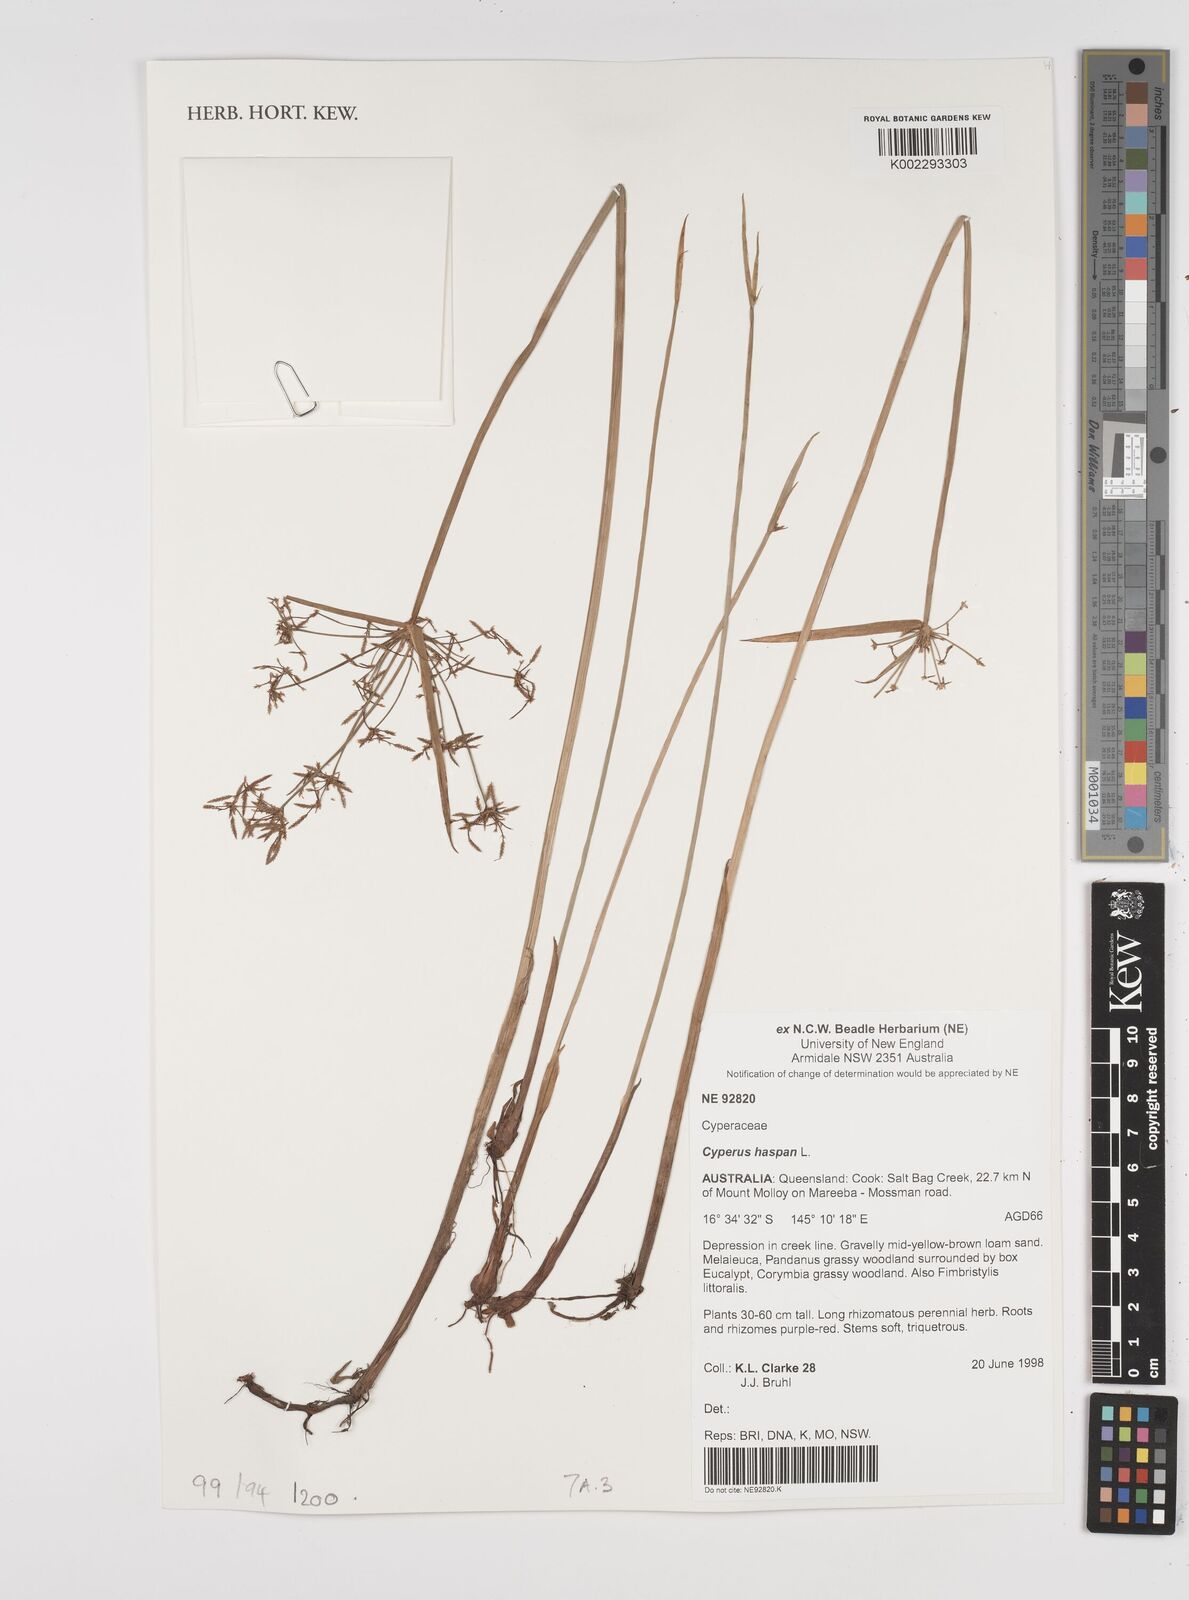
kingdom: Plantae
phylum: Tracheophyta
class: Liliopsida
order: Poales
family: Cyperaceae
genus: Cyperus
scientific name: Cyperus haspan
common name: Haspan flatsedge
